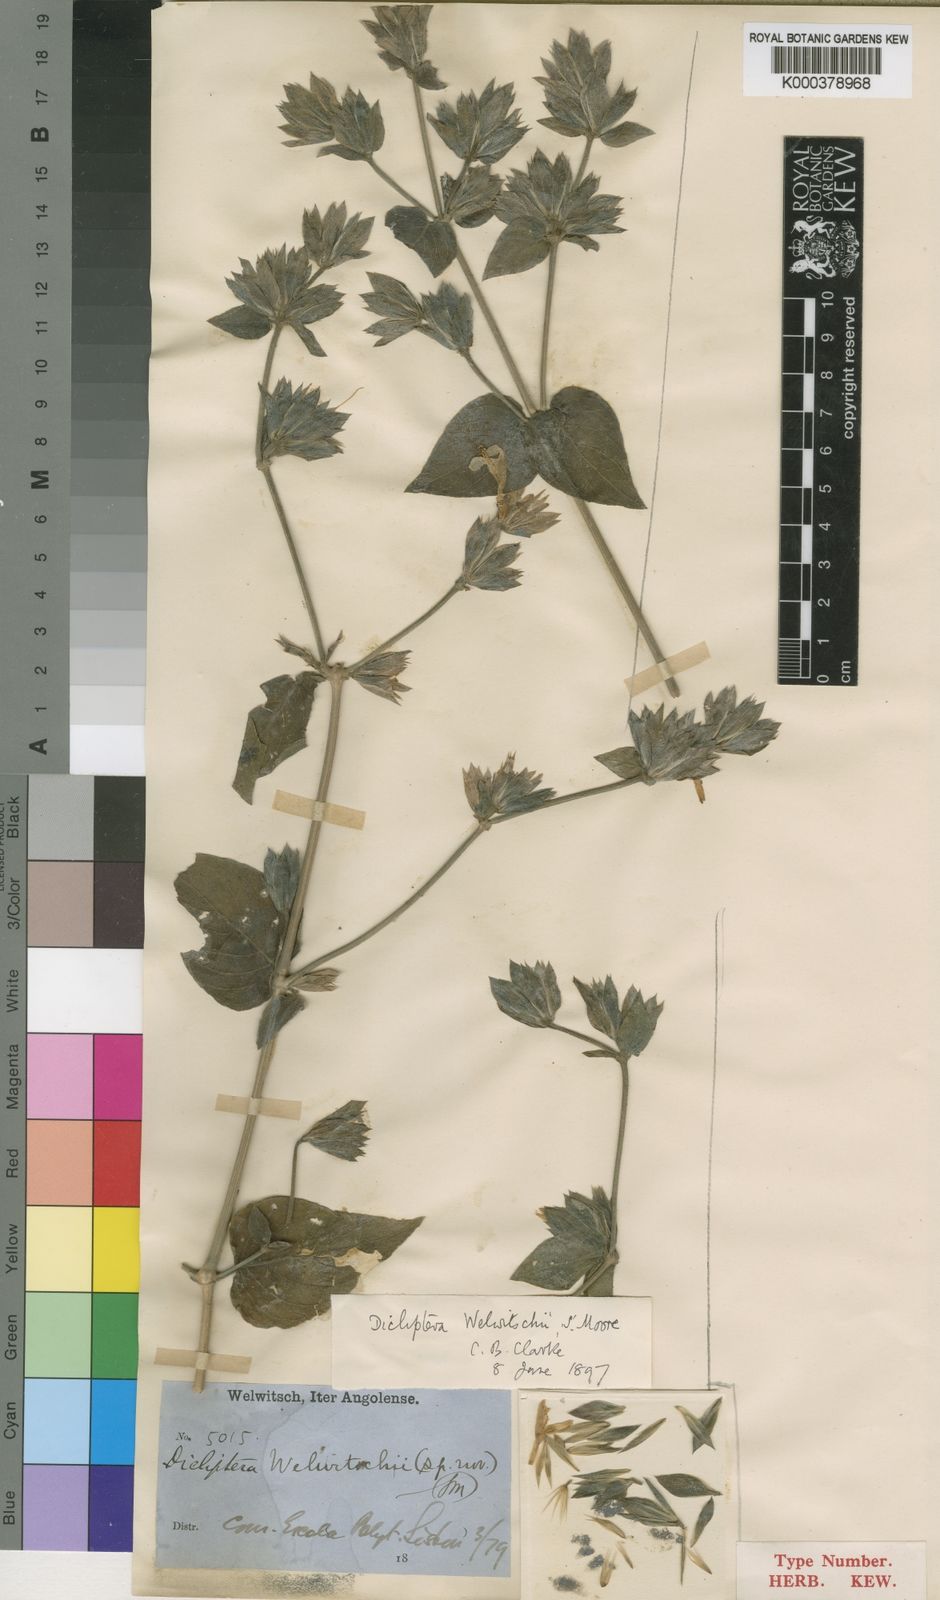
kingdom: Plantae
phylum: Tracheophyta
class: Magnoliopsida
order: Lamiales
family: Acanthaceae
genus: Dicliptera
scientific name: Dicliptera welwitschii
